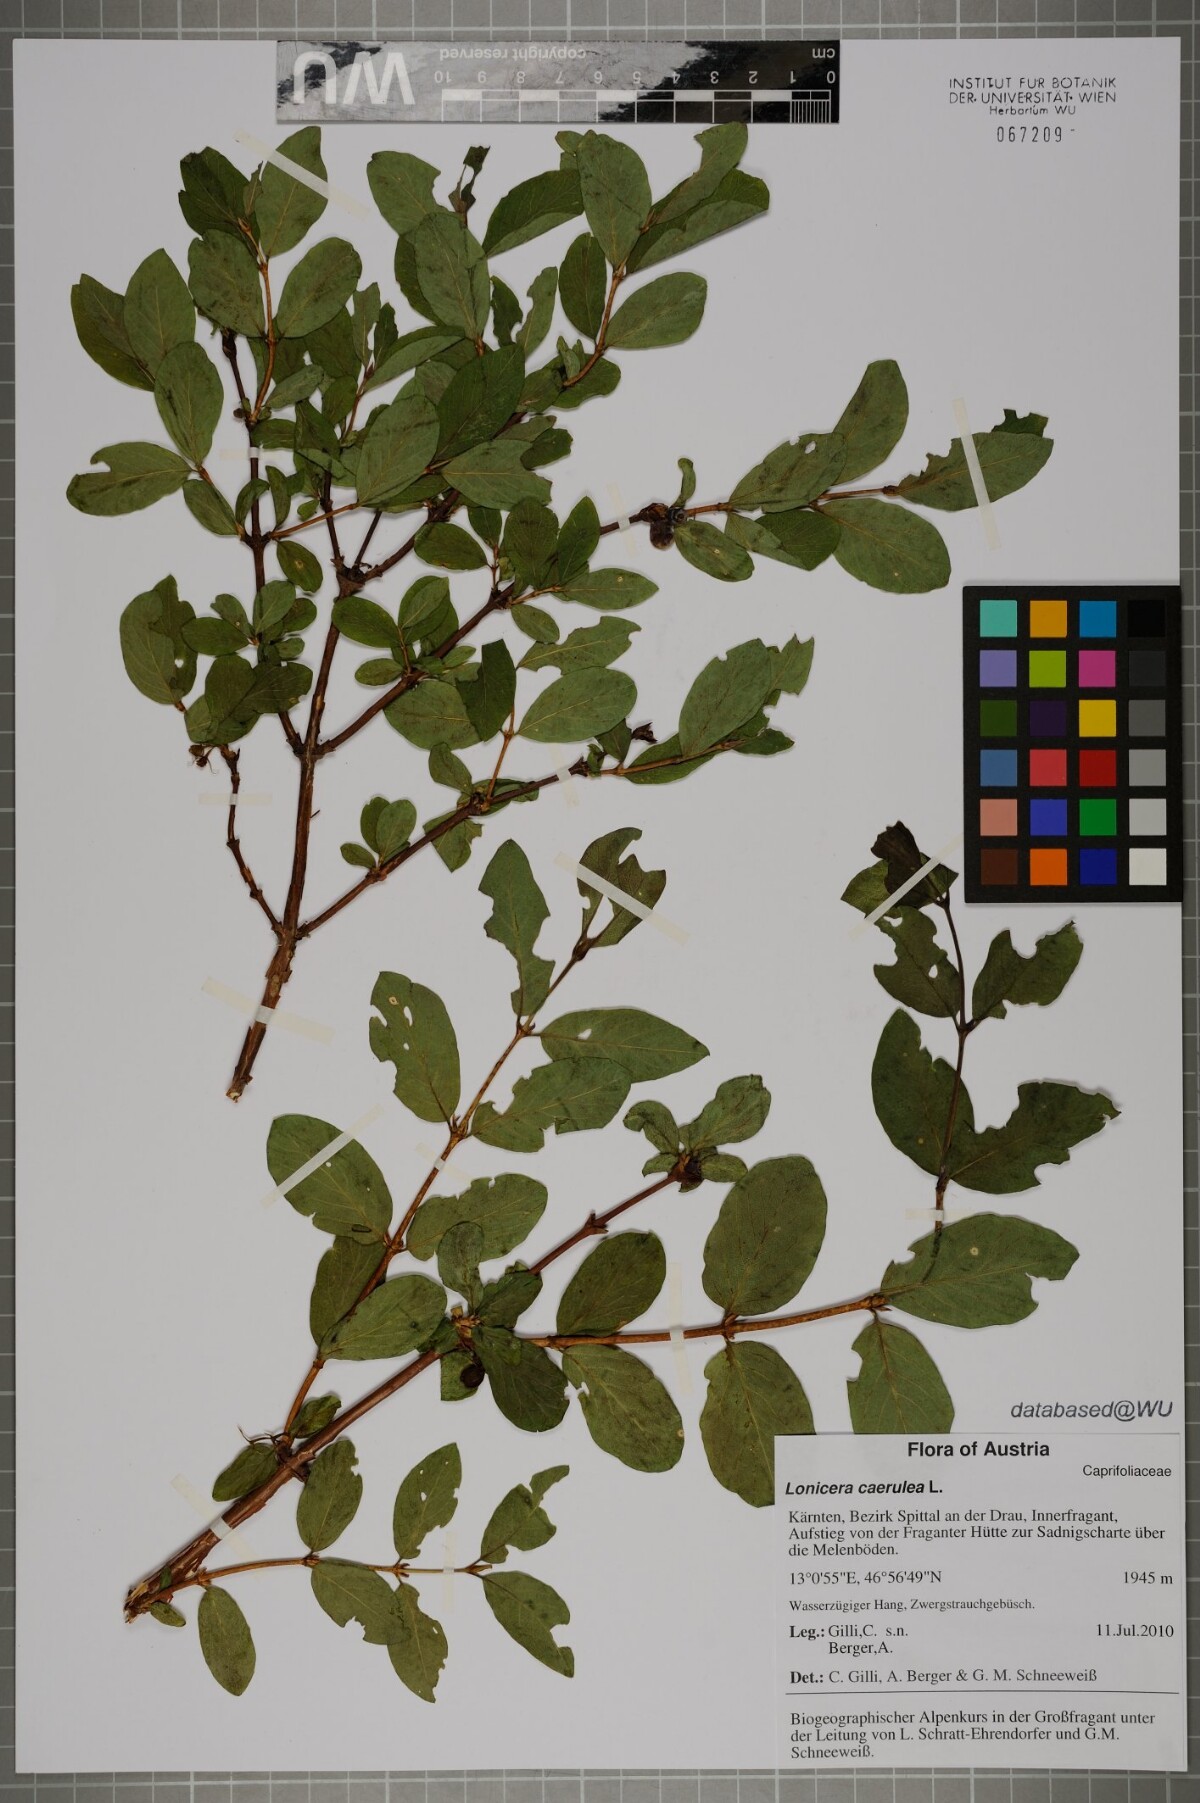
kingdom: Plantae
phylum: Tracheophyta
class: Magnoliopsida
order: Dipsacales
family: Caprifoliaceae
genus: Lonicera
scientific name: Lonicera caerulea
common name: Blue honeysuckle
